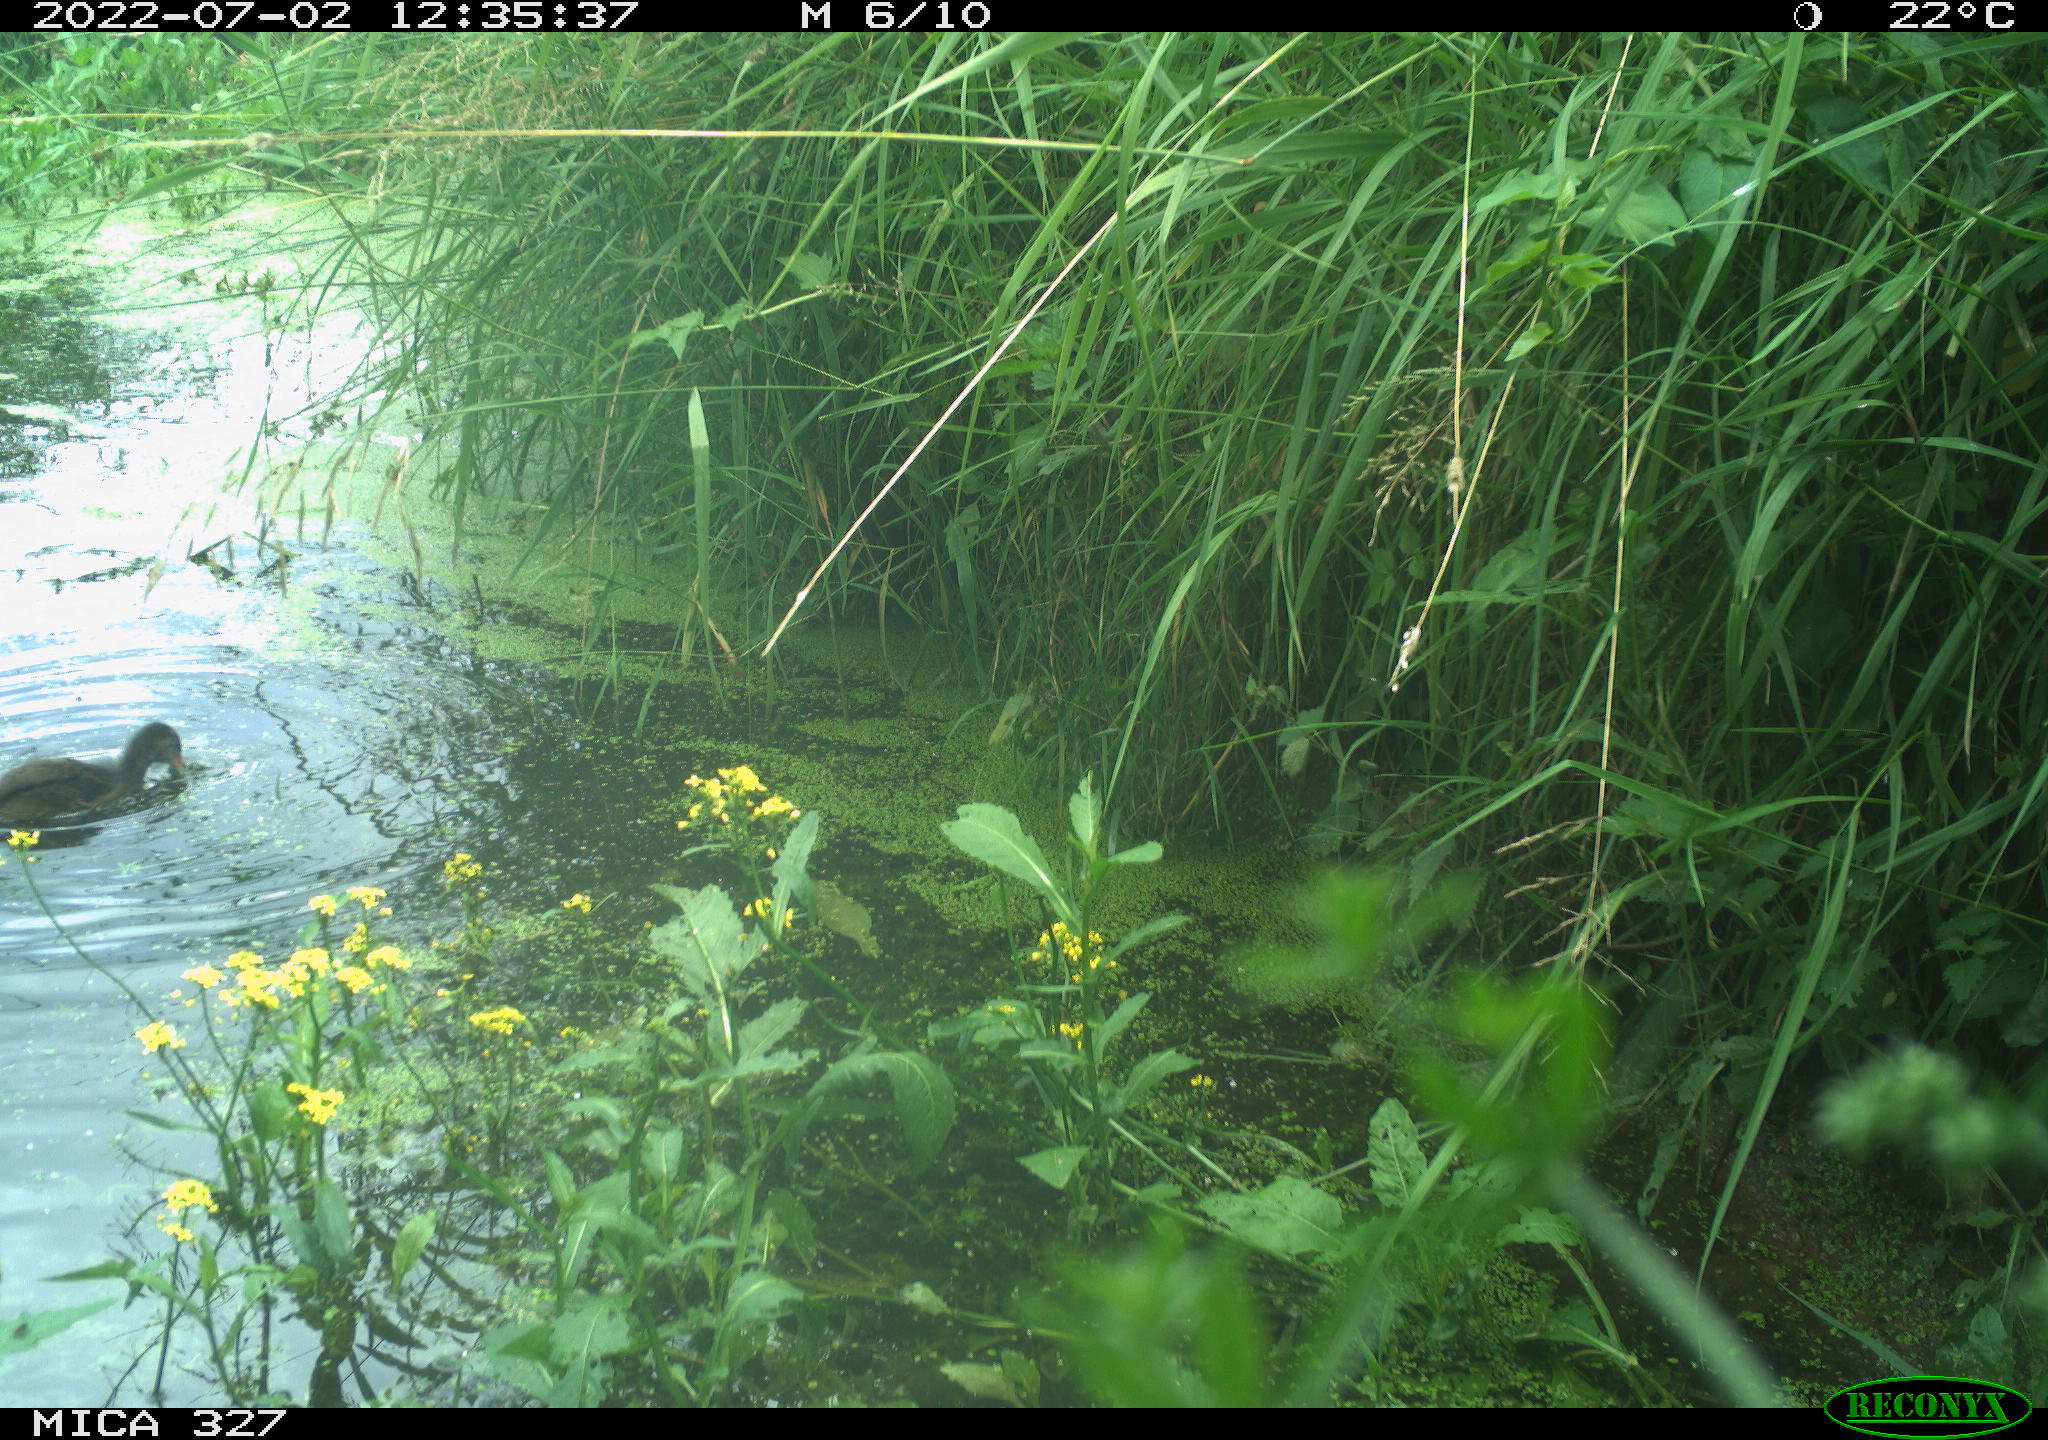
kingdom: Animalia
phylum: Chordata
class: Aves
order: Gruiformes
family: Rallidae
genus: Gallinula
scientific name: Gallinula chloropus
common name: Common moorhen
